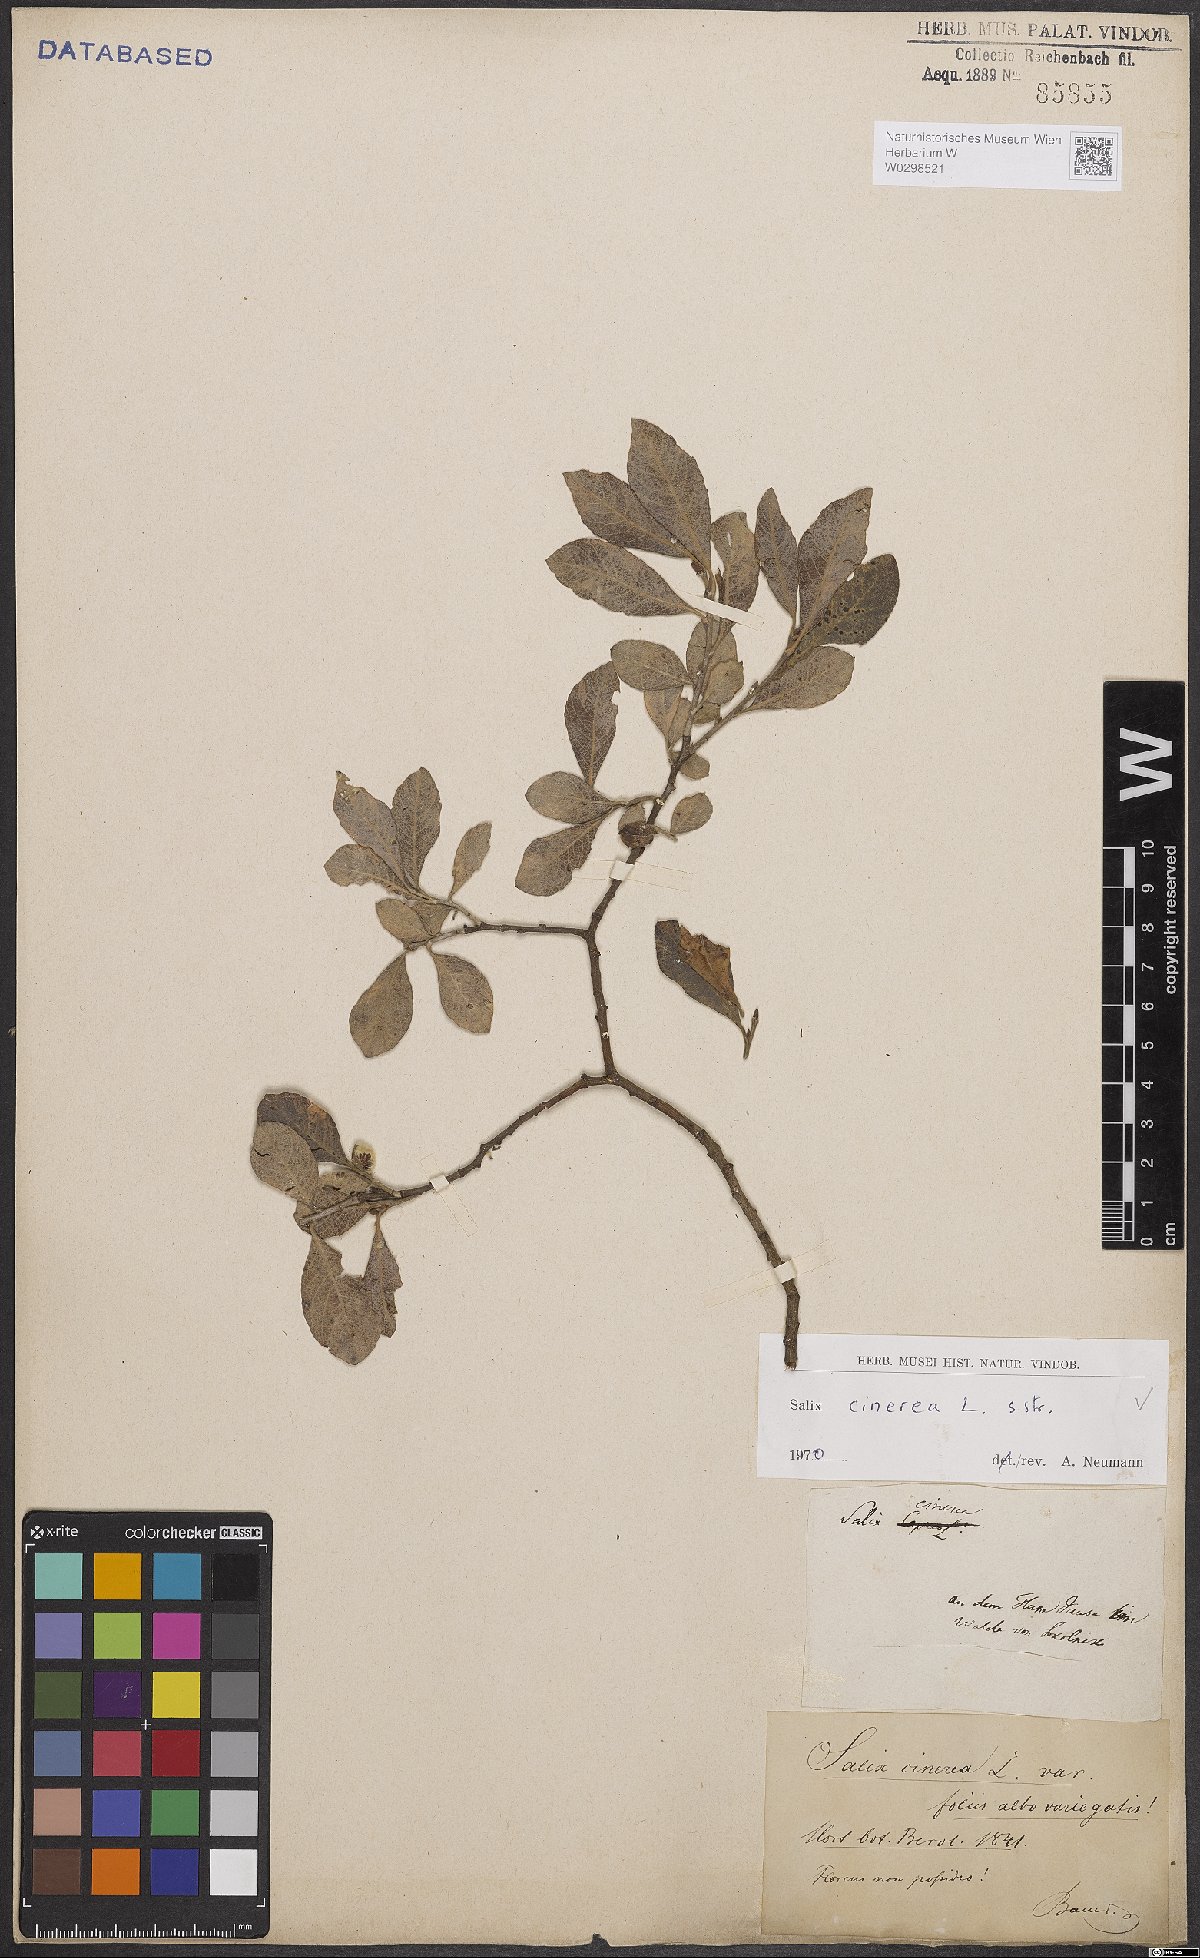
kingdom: Plantae
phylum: Tracheophyta
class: Magnoliopsida
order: Malpighiales
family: Salicaceae
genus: Salix
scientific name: Salix cinerea
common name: Common sallow
